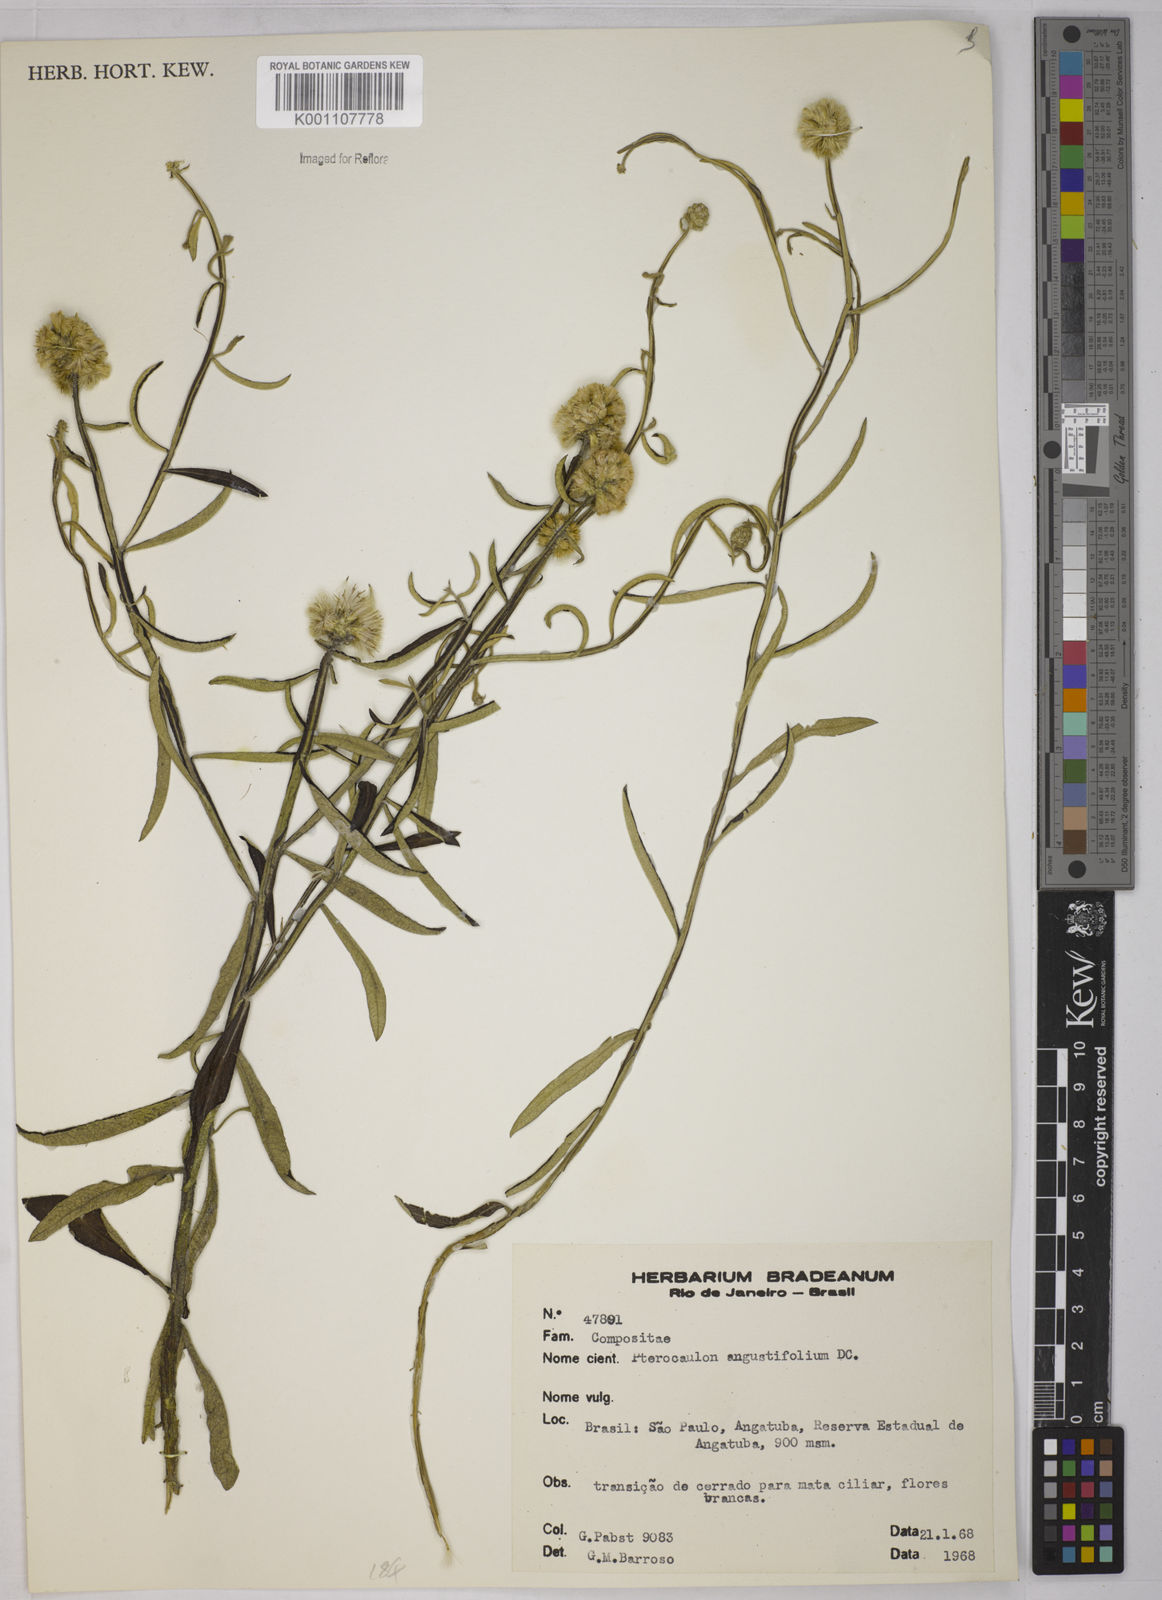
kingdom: Plantae
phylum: Tracheophyta
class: Magnoliopsida
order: Asterales
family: Asteraceae
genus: Pterocaulon
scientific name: Pterocaulon angustifolium
